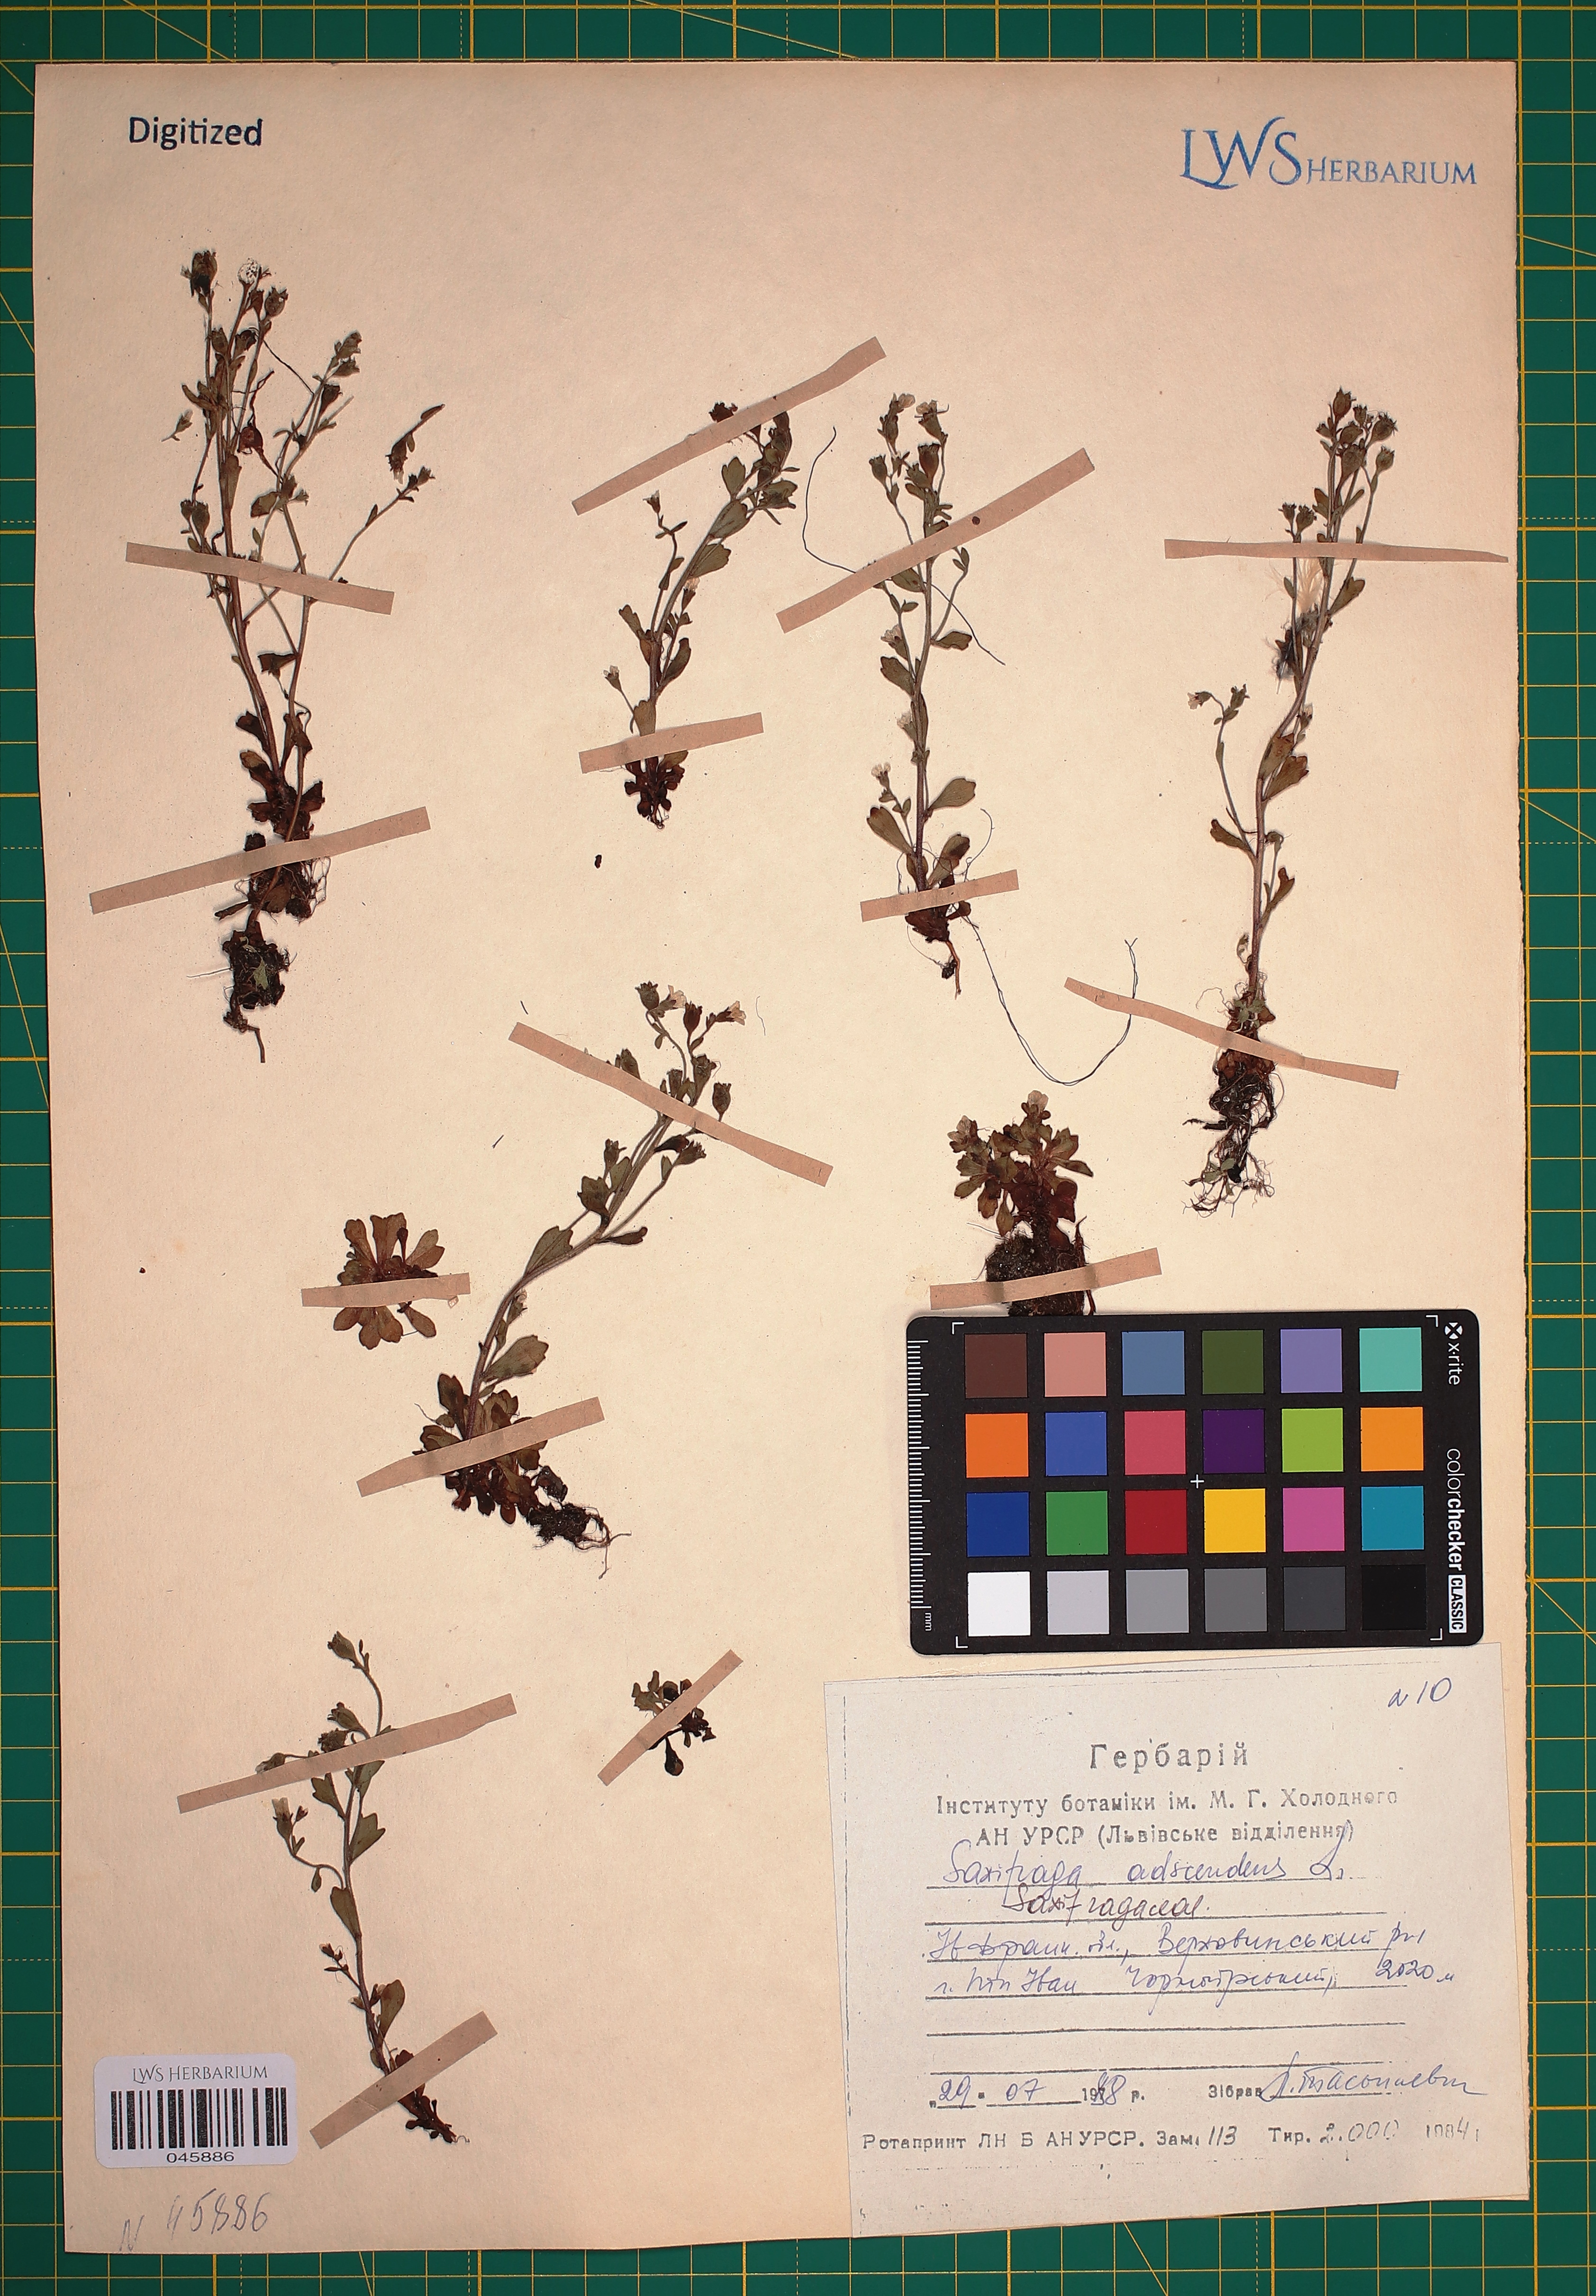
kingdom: Plantae
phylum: Tracheophyta
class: Magnoliopsida
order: Saxifragales
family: Saxifragaceae
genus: Saxifraga
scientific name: Saxifraga adscendens
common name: Ascending saxifrage
